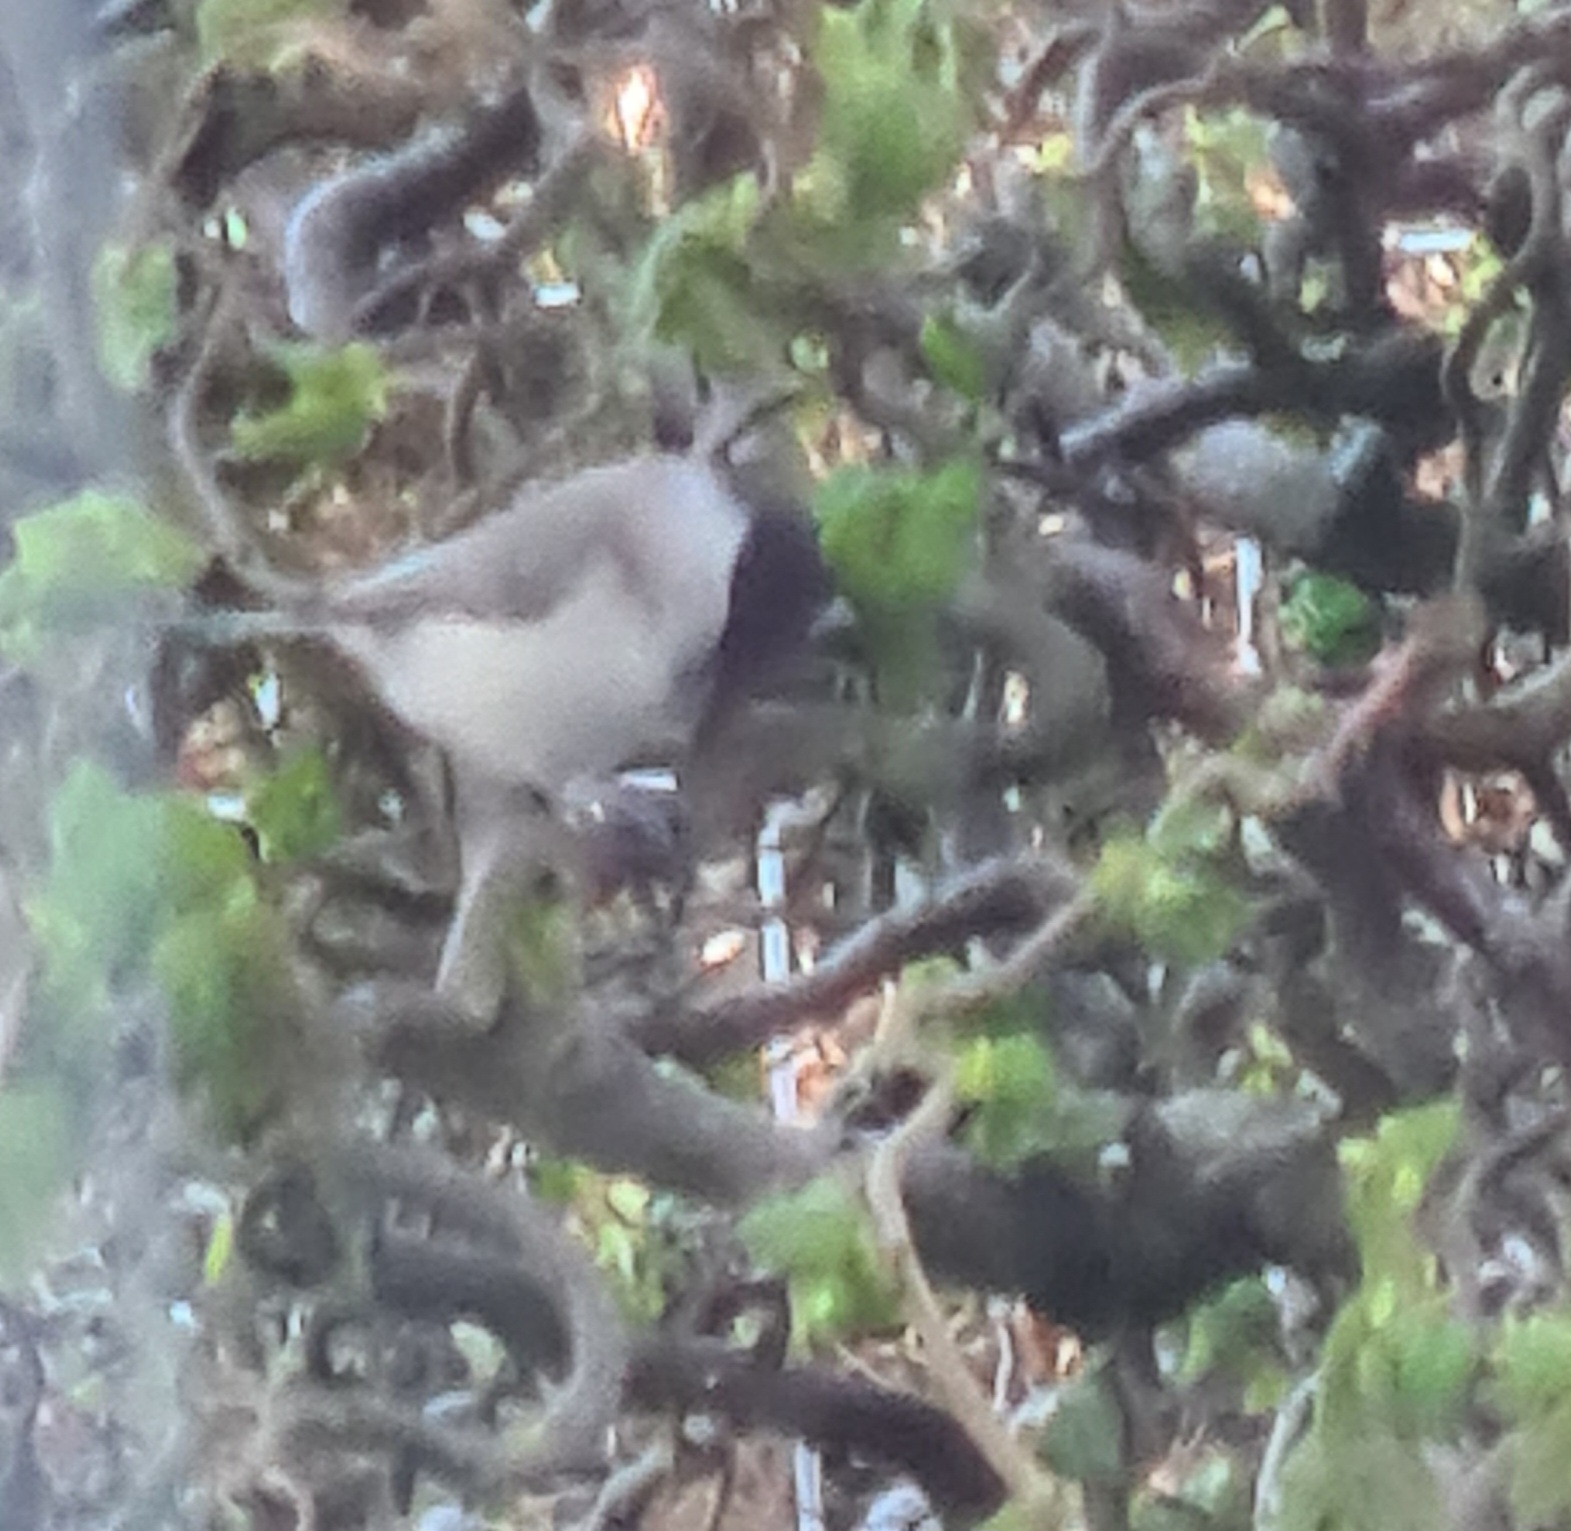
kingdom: Animalia
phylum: Chordata
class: Aves
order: Passeriformes
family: Paridae
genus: Poecile
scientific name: Poecile palustris
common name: Sumpmejse
